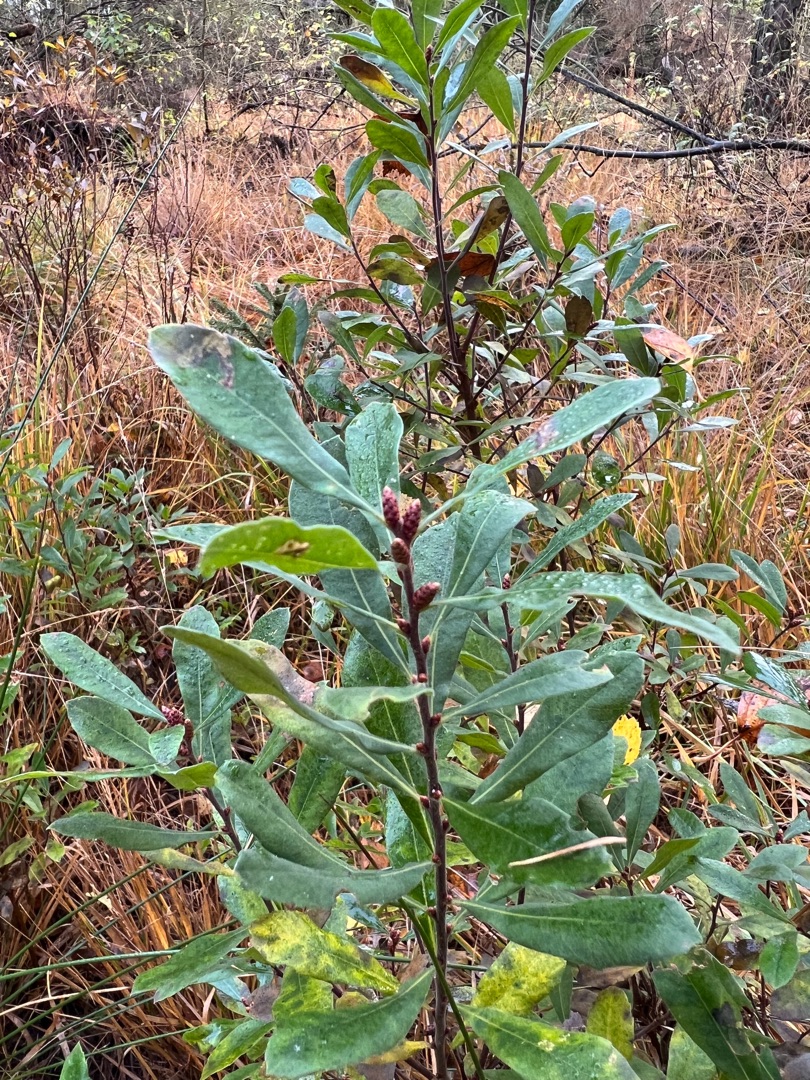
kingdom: Plantae
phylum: Tracheophyta
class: Magnoliopsida
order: Fagales
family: Myricaceae
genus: Myrica
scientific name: Myrica gale
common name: Pors
